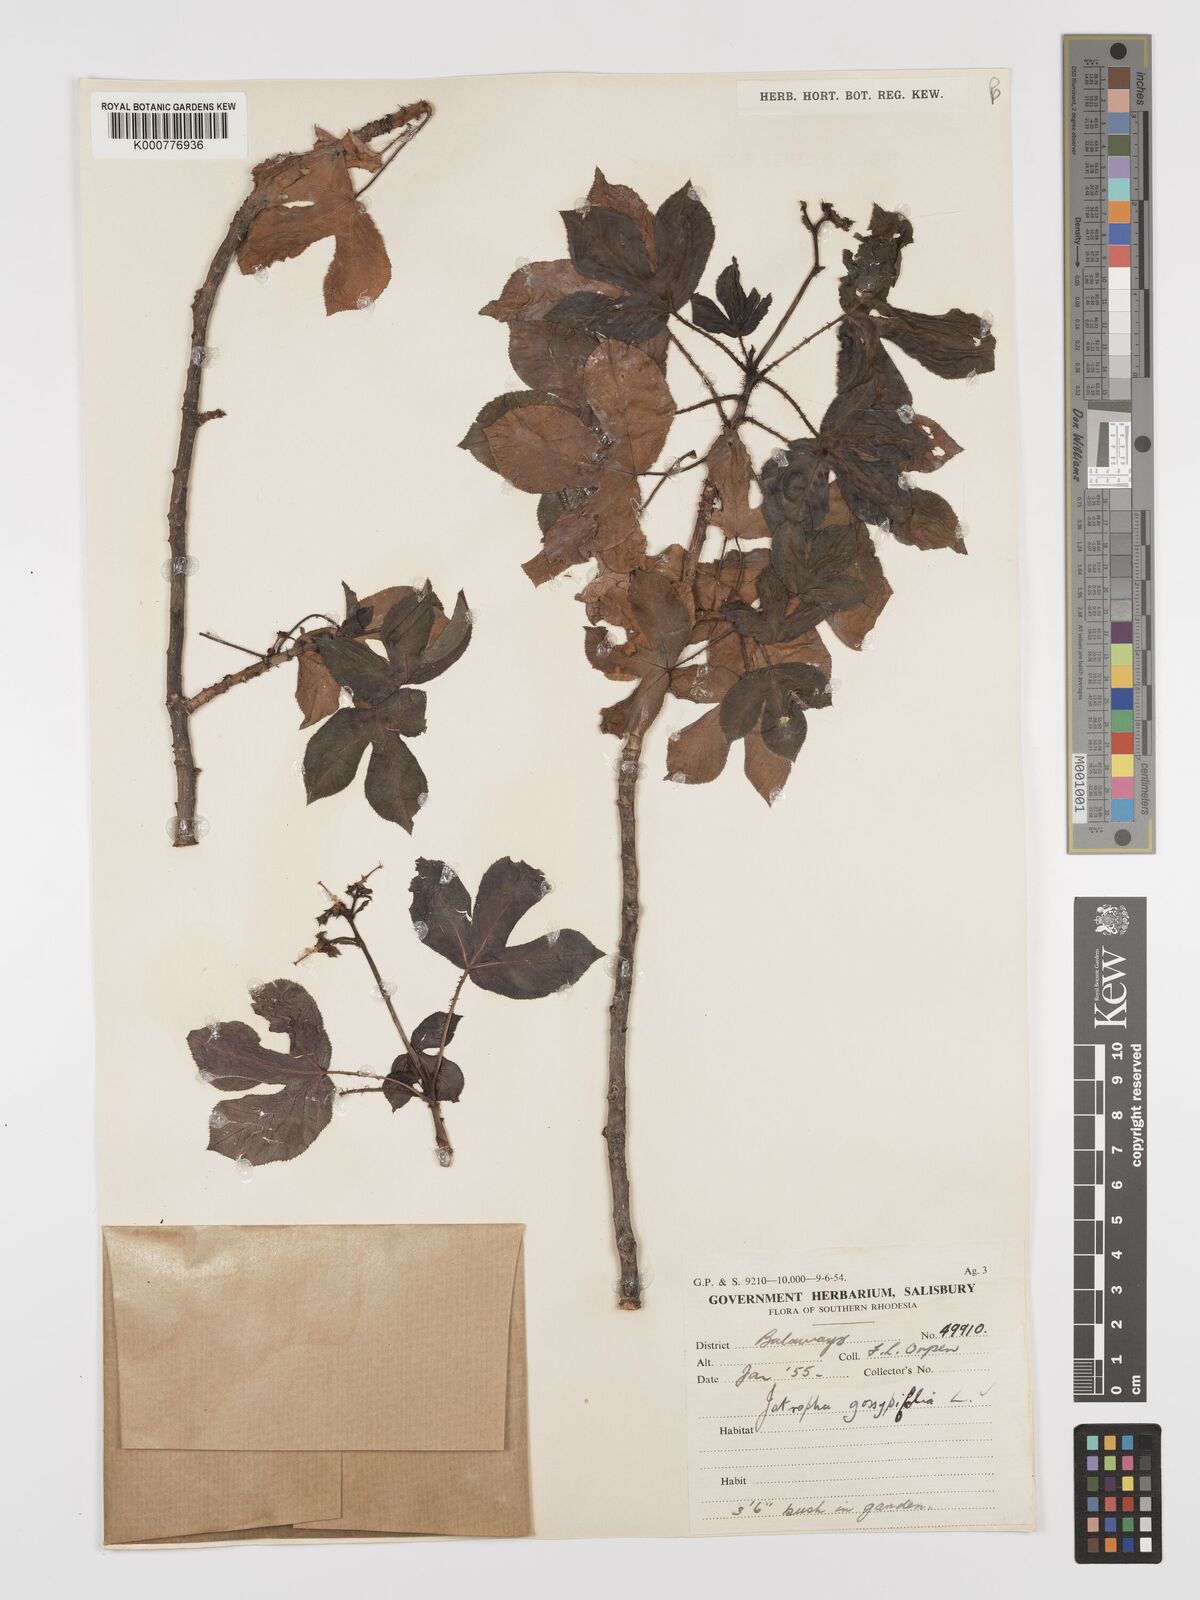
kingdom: Plantae
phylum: Tracheophyta
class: Magnoliopsida
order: Malpighiales
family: Euphorbiaceae
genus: Jatropha
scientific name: Jatropha gossypiifolia
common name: Bellyache bush
